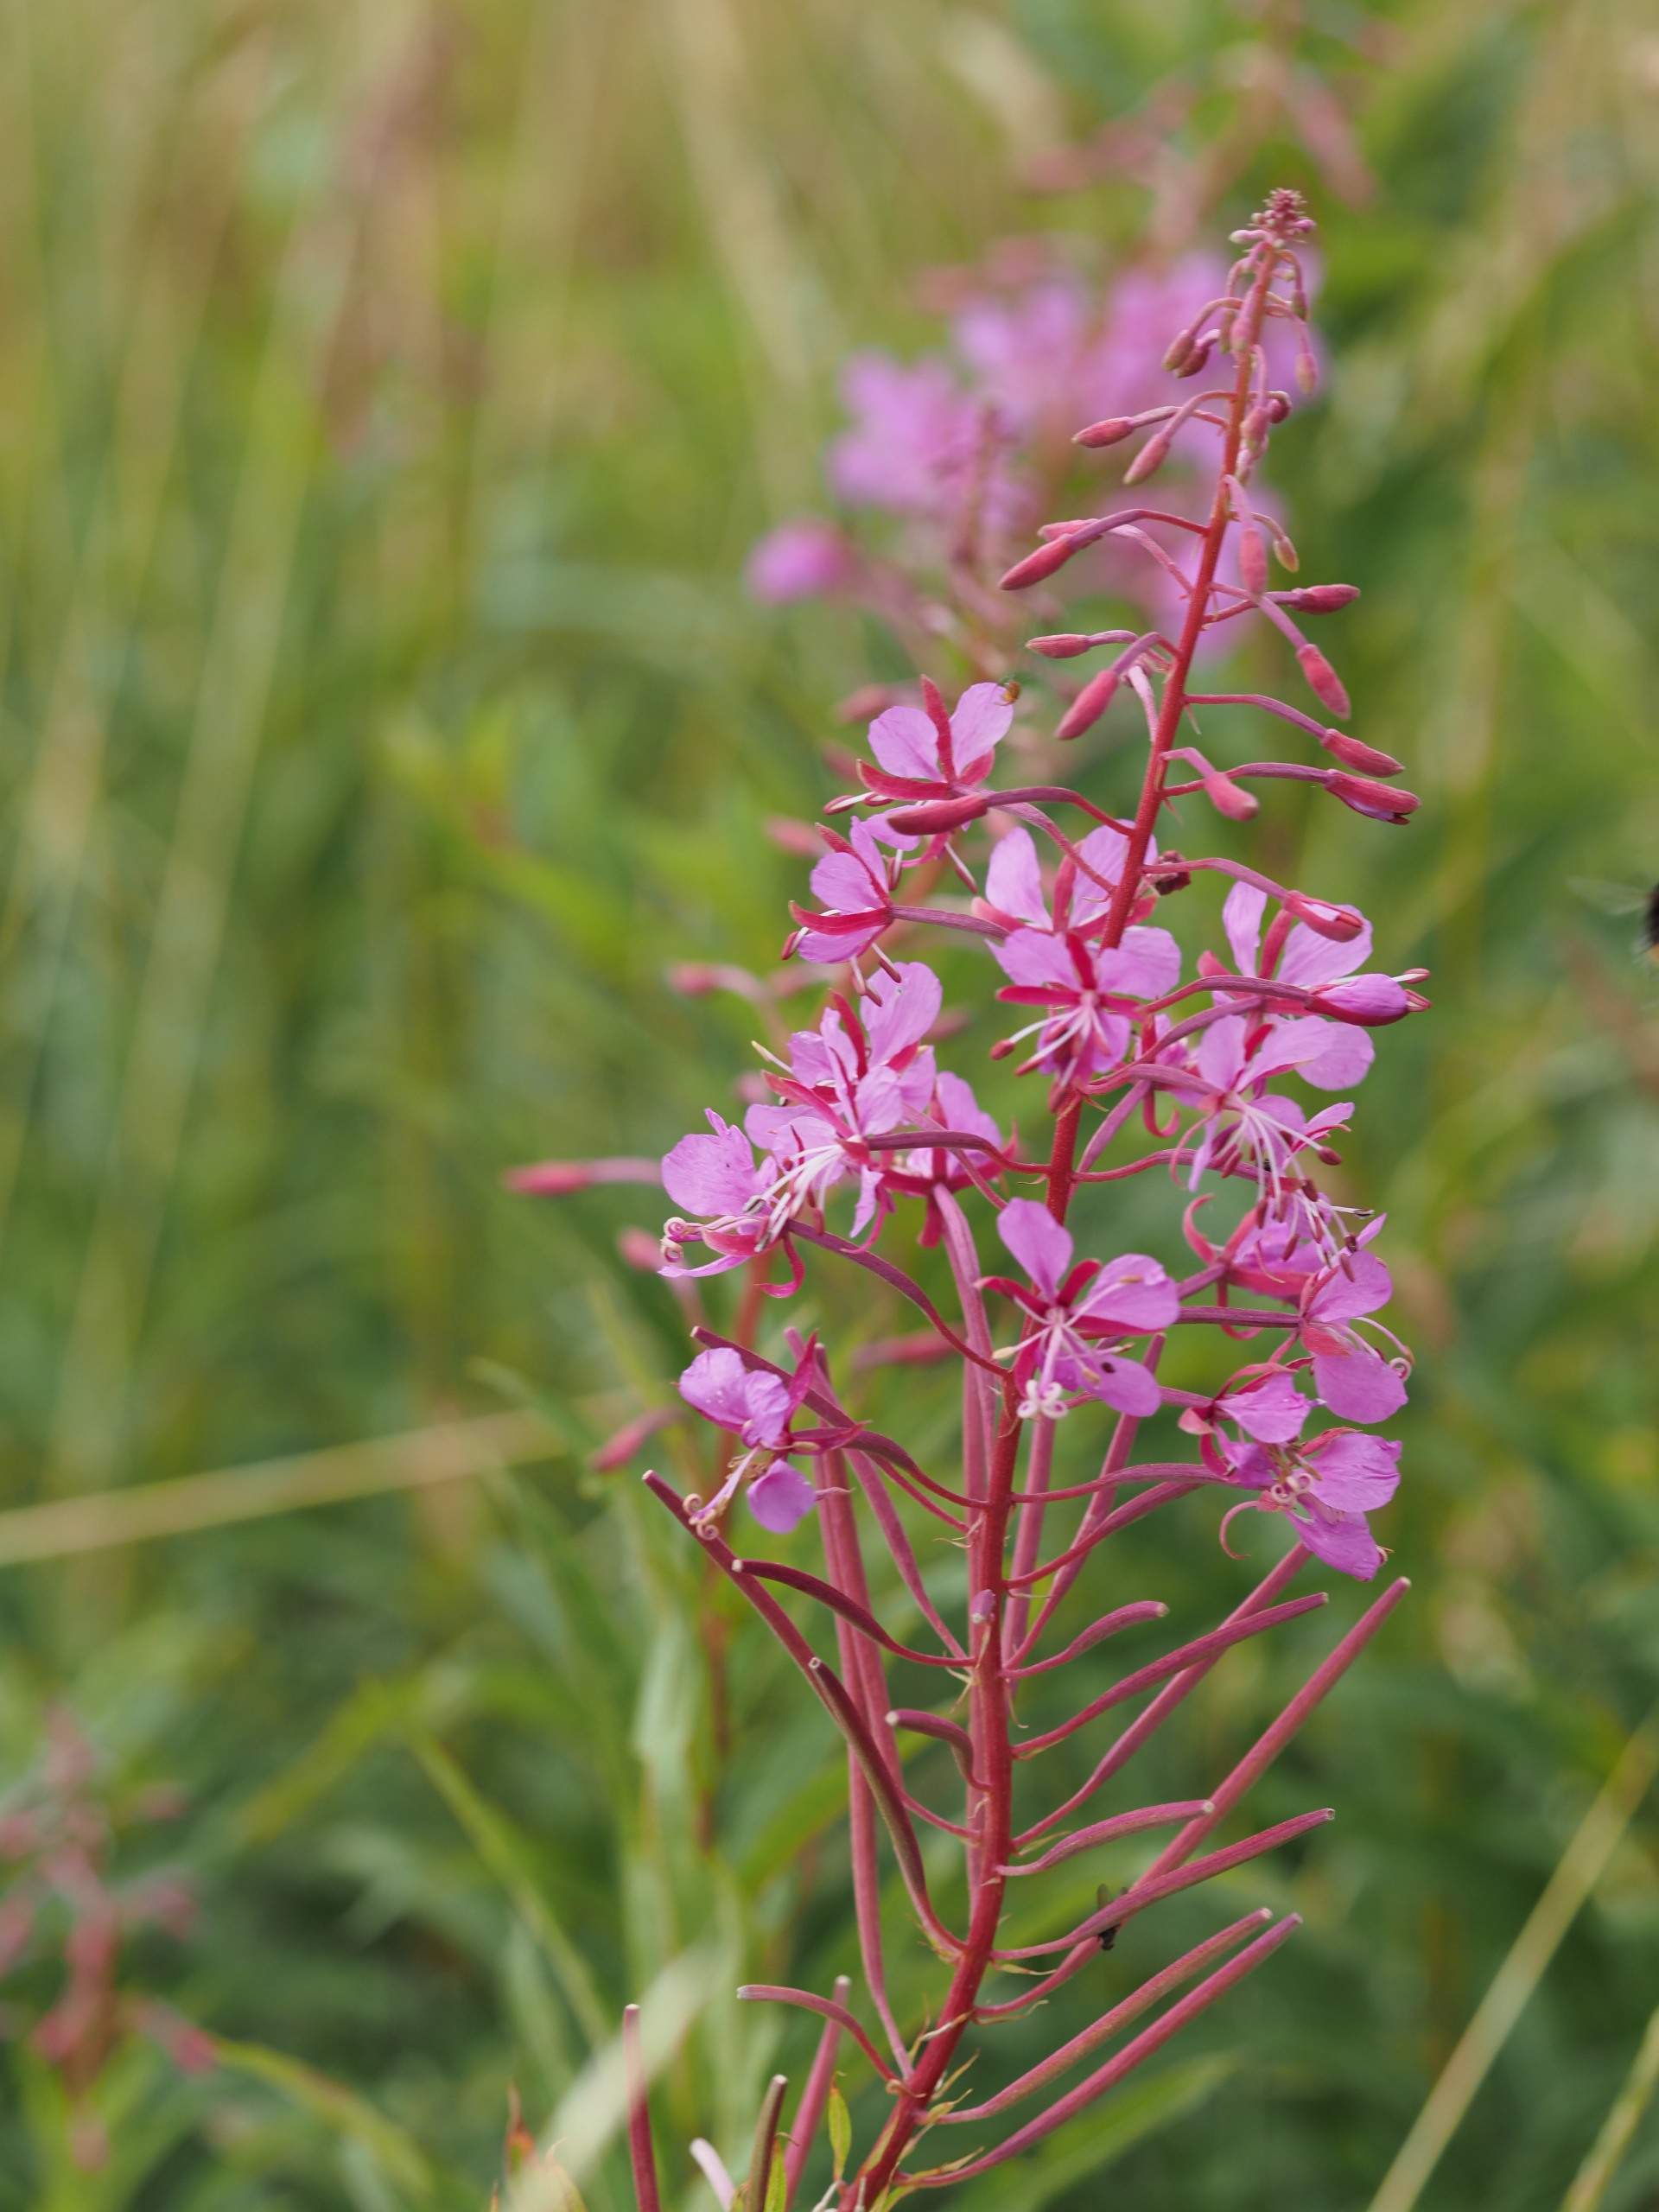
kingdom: Plantae
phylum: Tracheophyta
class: Magnoliopsida
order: Myrtales
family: Onagraceae
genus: Chamaenerion
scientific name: Chamaenerion angustifolium
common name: Gederams
